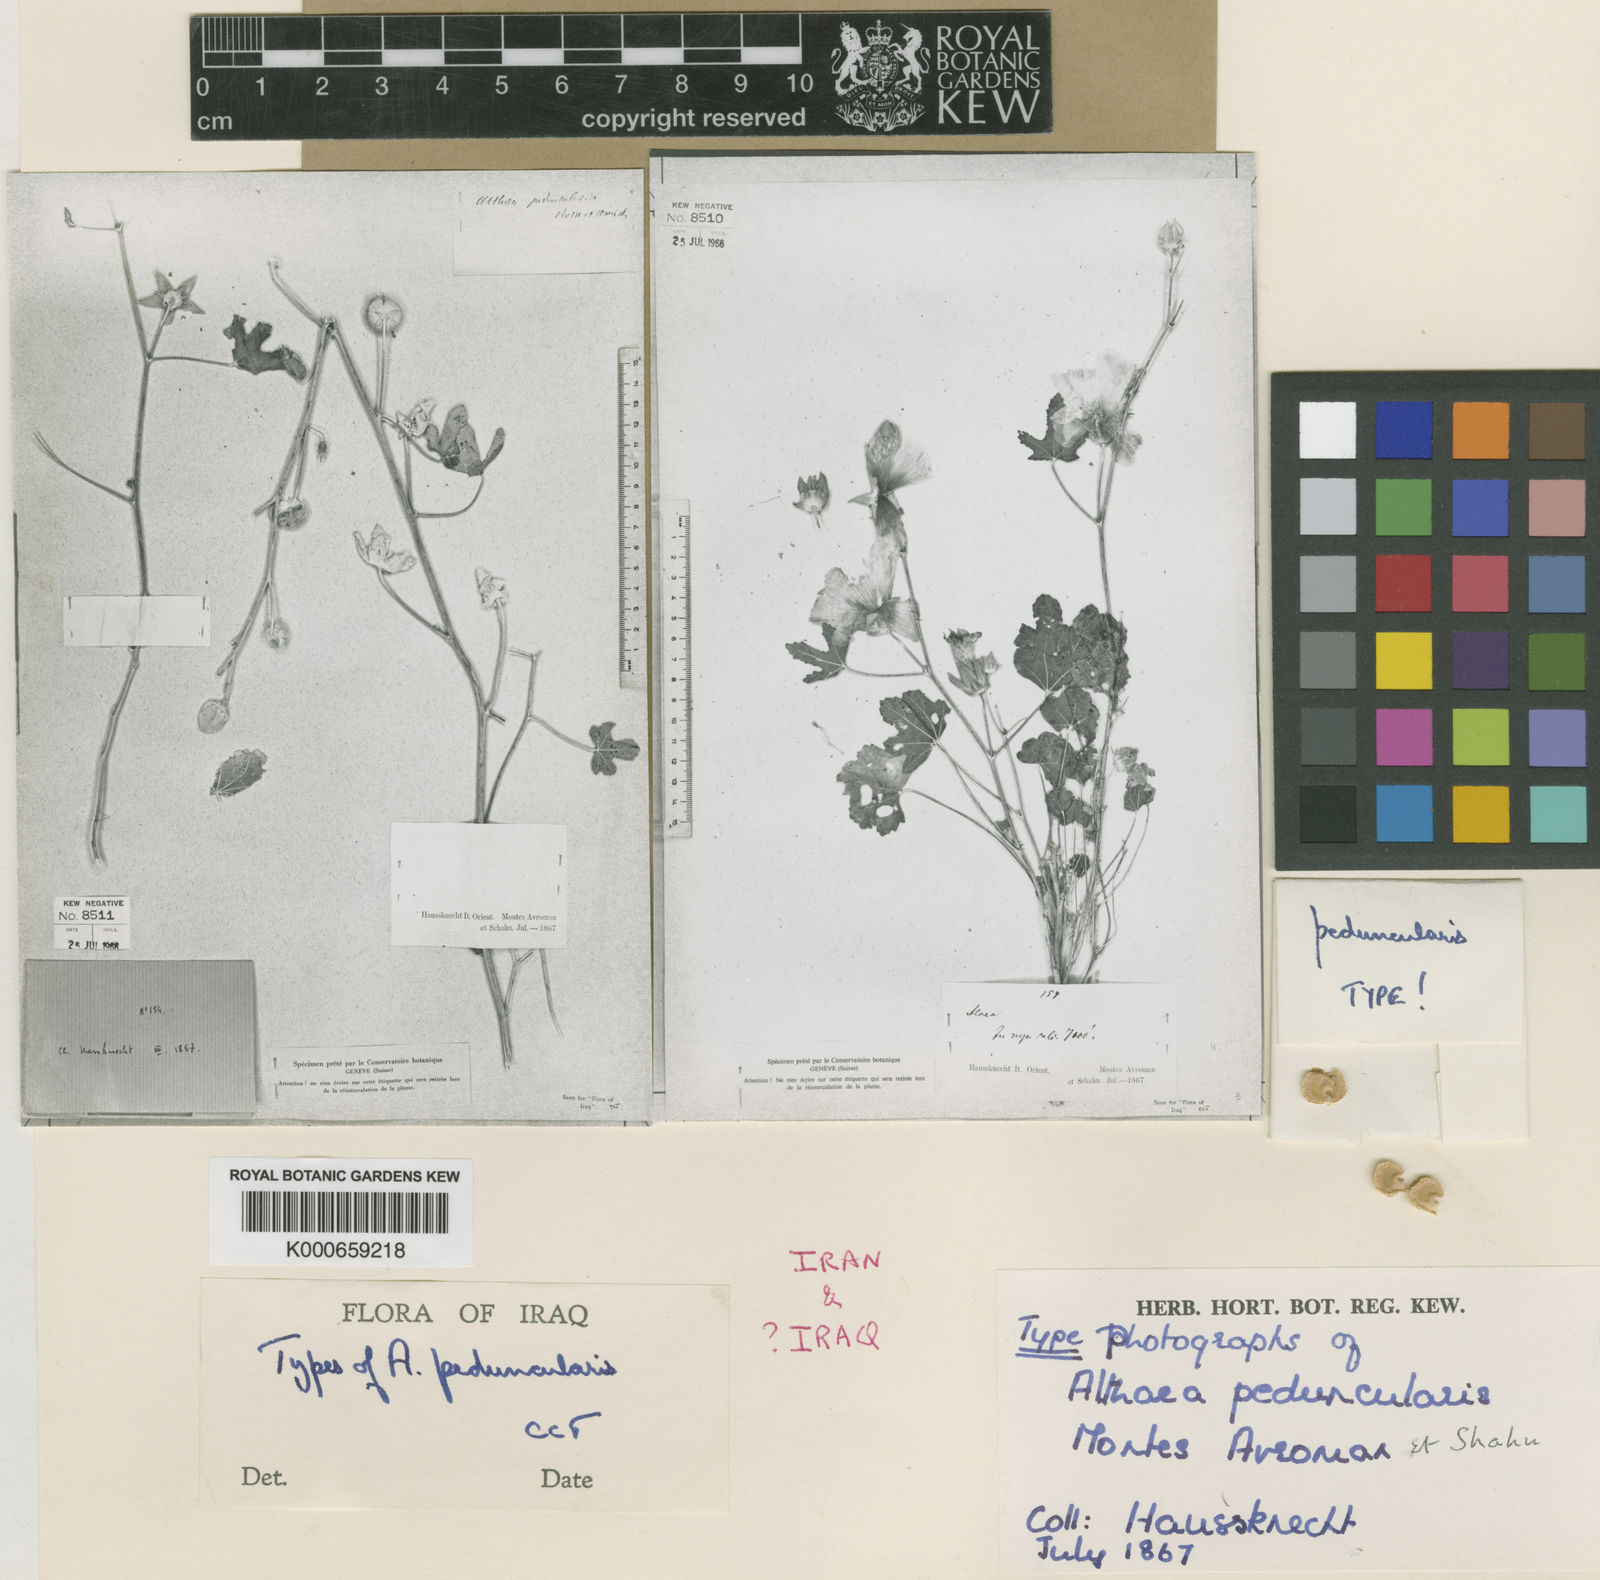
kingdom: Plantae
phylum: Tracheophyta
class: Magnoliopsida
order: Malvales
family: Malvaceae
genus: Alcea
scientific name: Alcea peduncularis
